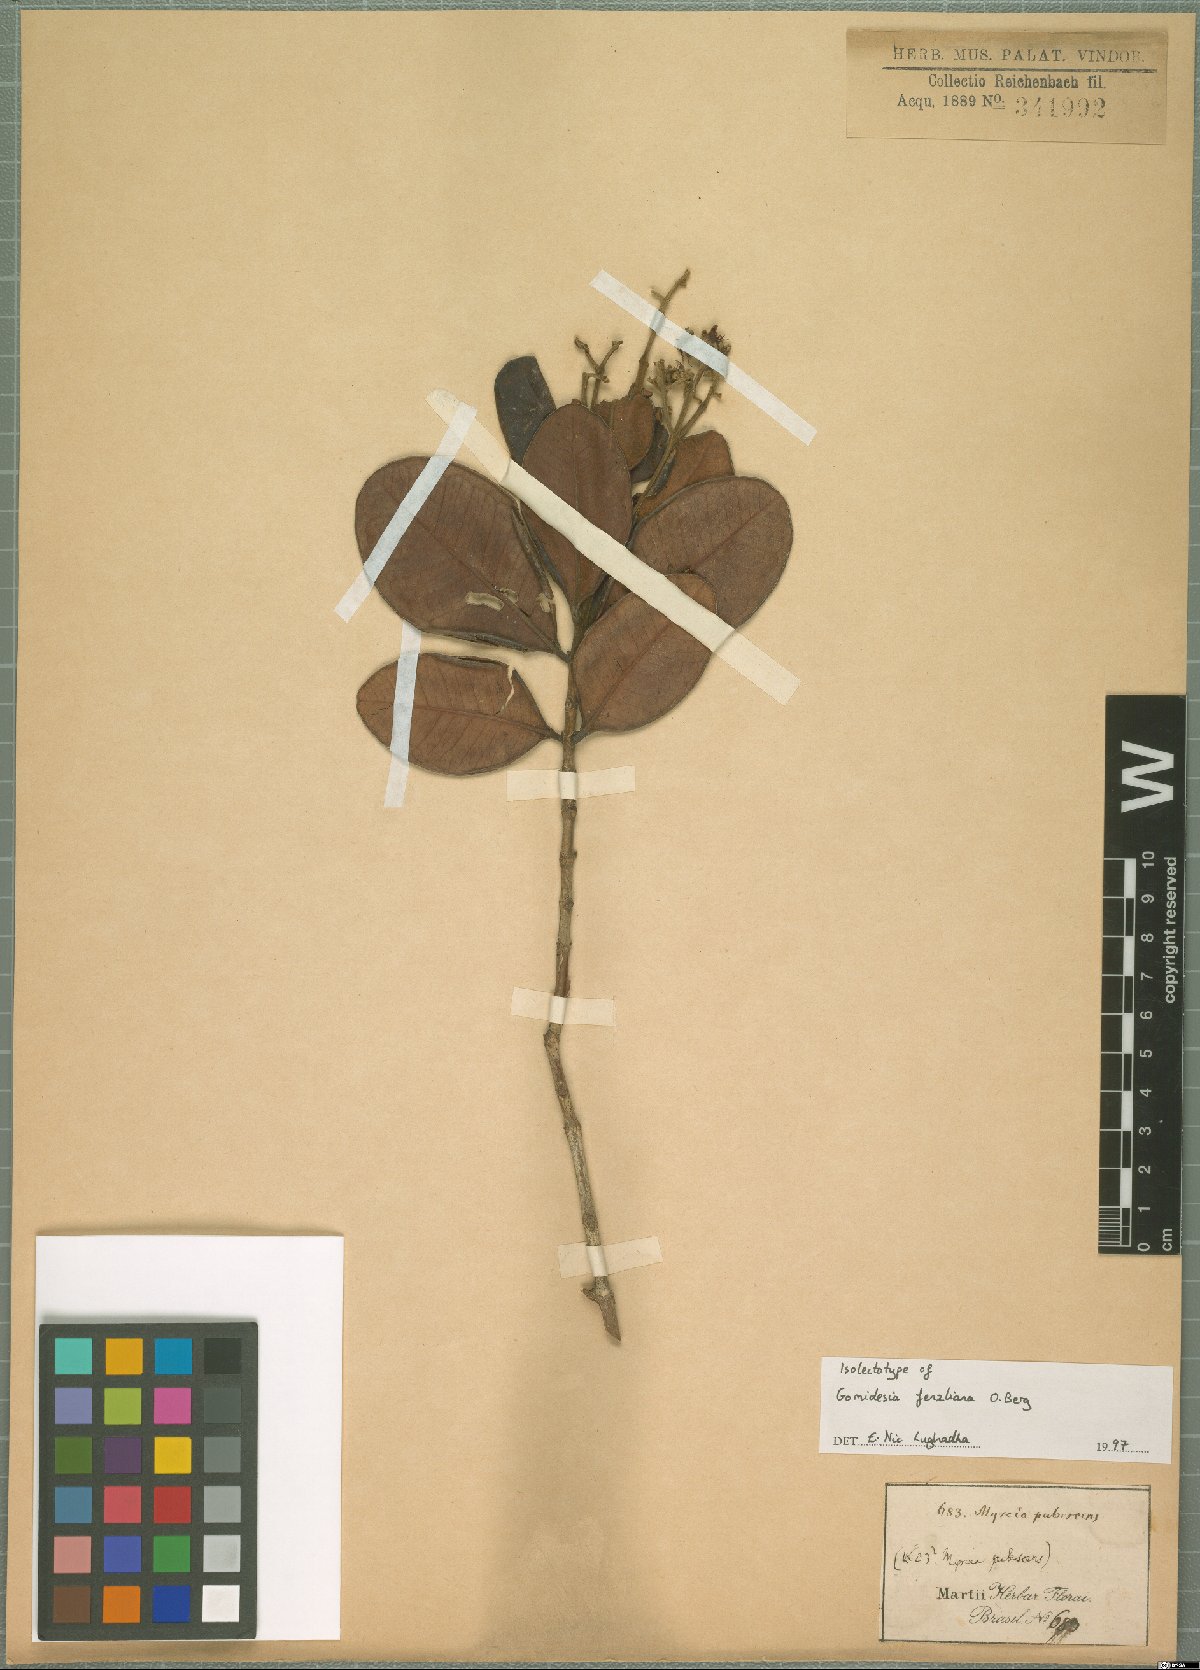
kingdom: Plantae
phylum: Tracheophyta
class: Magnoliopsida
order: Myrtales
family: Myrtaceae
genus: Myrcia
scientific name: Myrcia ilheosensis
